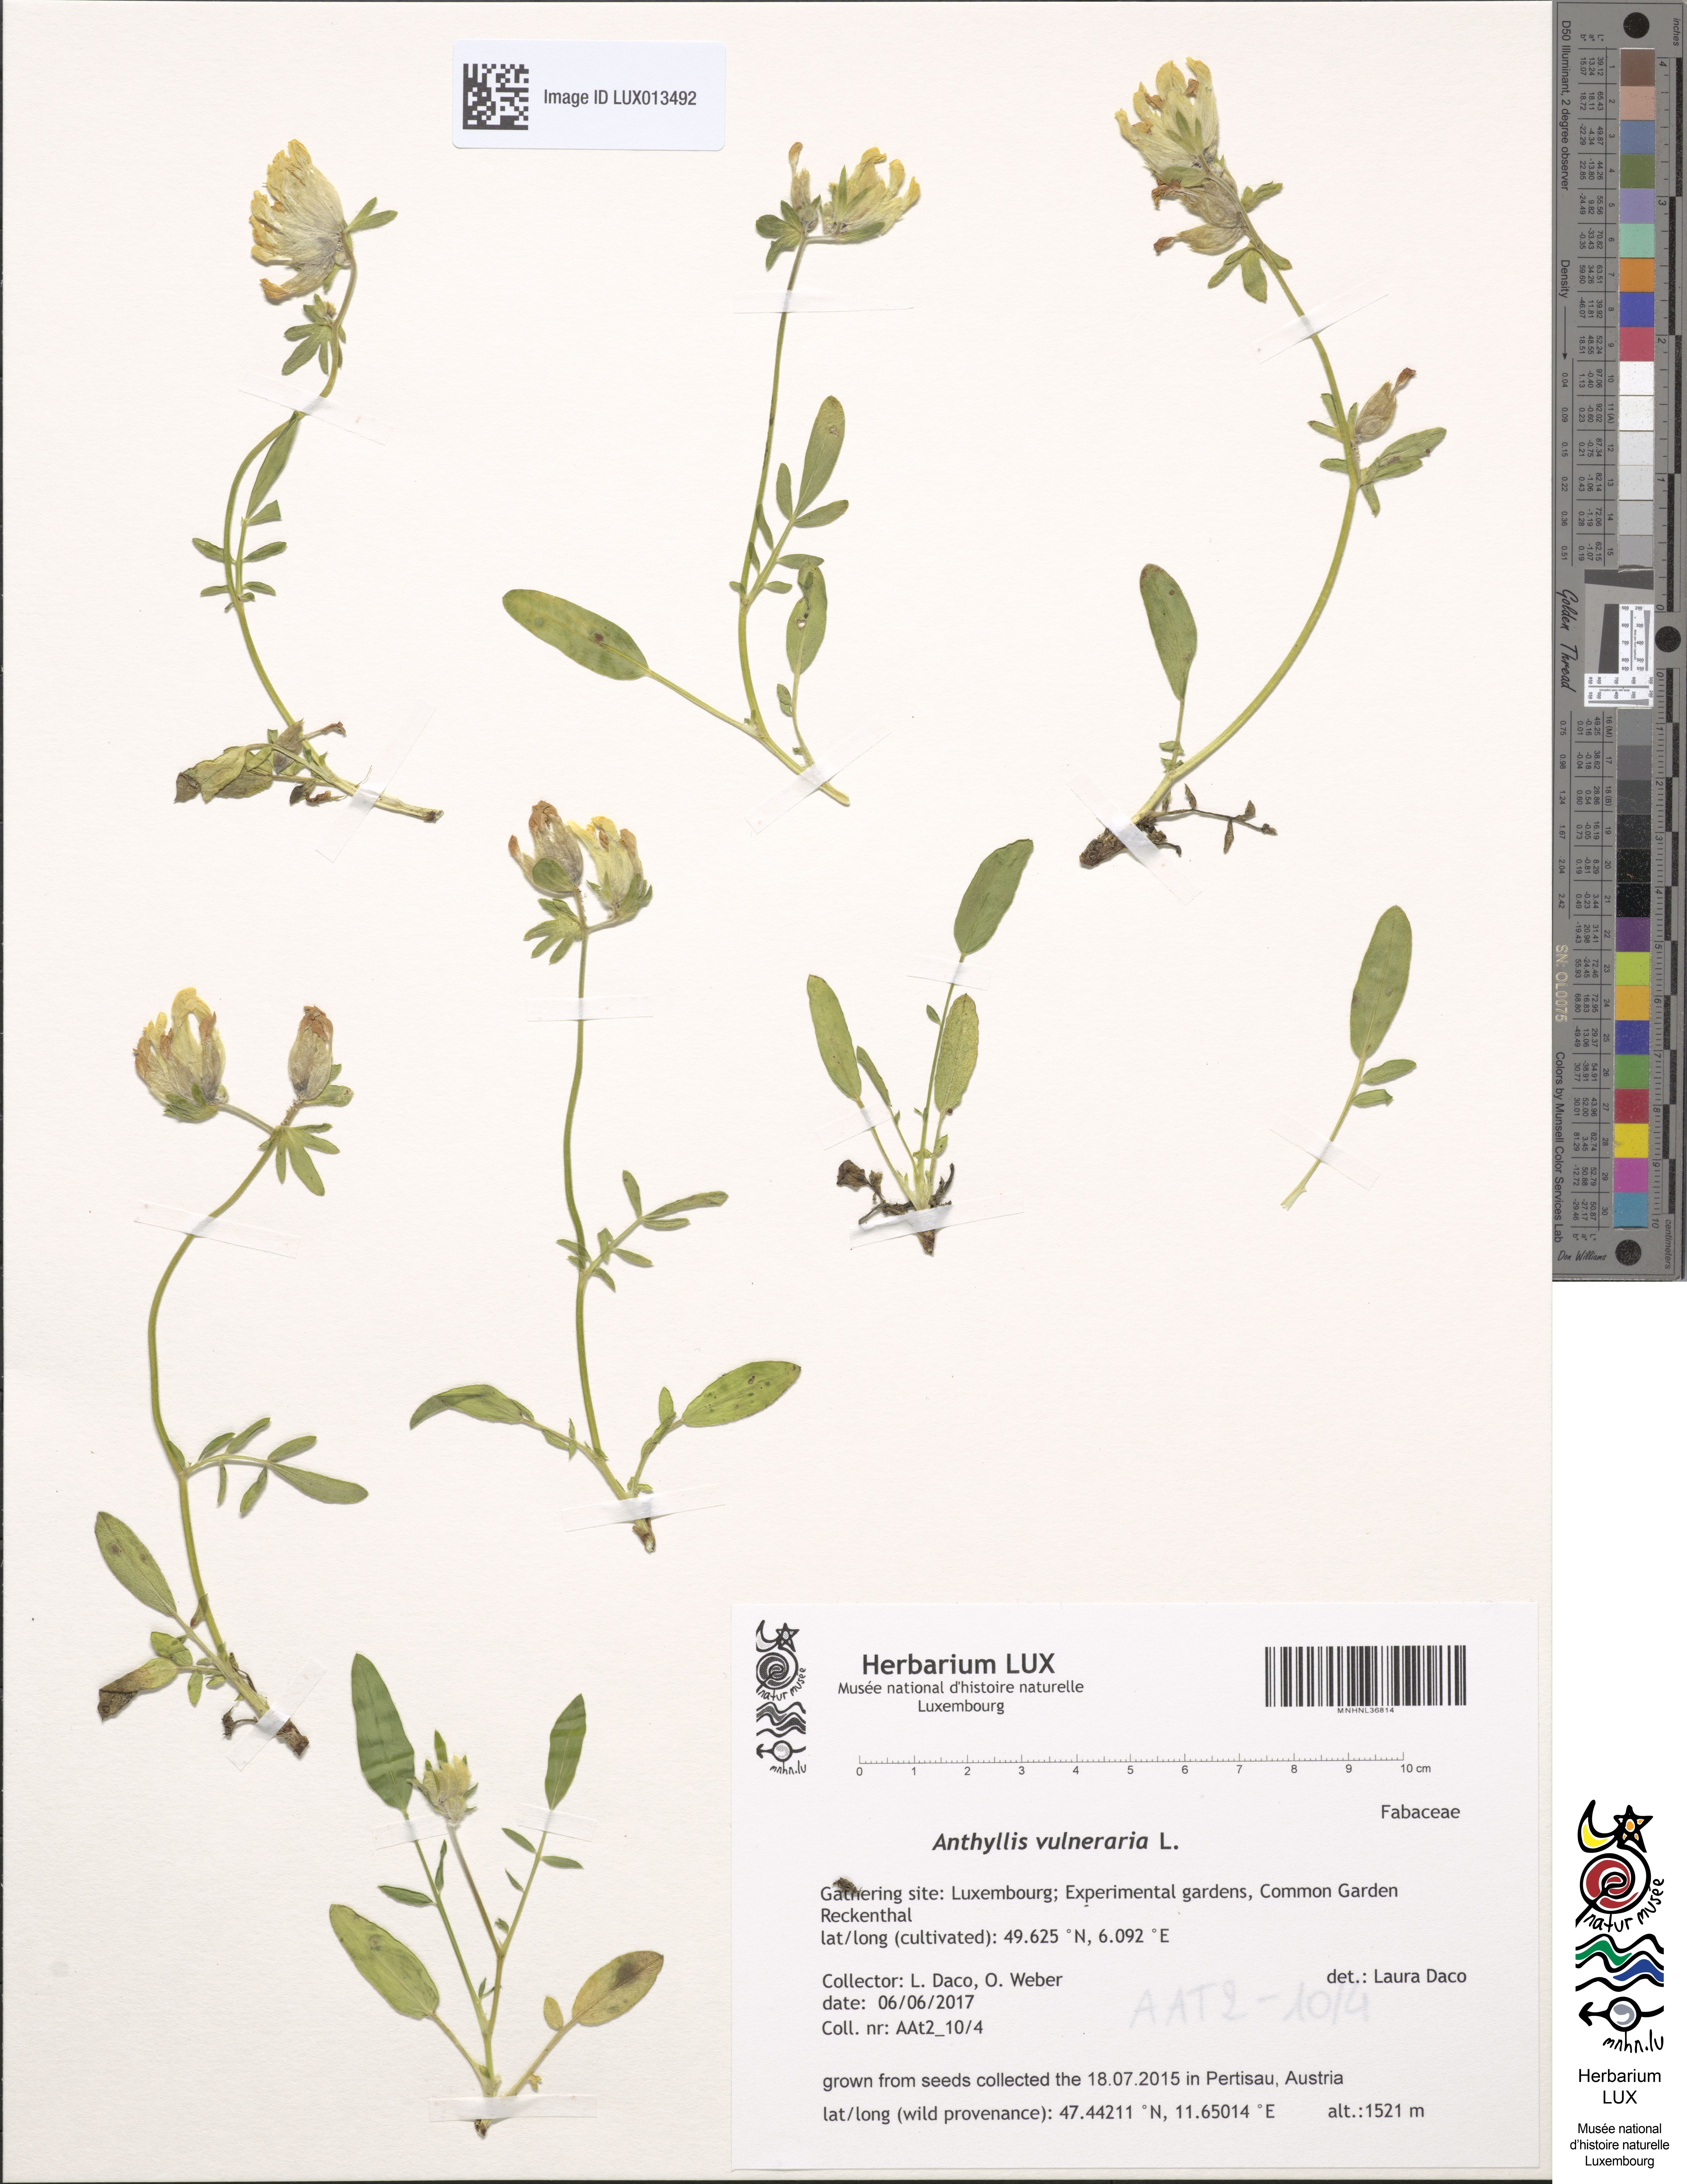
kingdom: Plantae
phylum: Tracheophyta
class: Magnoliopsida
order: Fabales
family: Fabaceae
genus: Anthyllis
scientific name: Anthyllis vulneraria
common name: Kidney vetch
